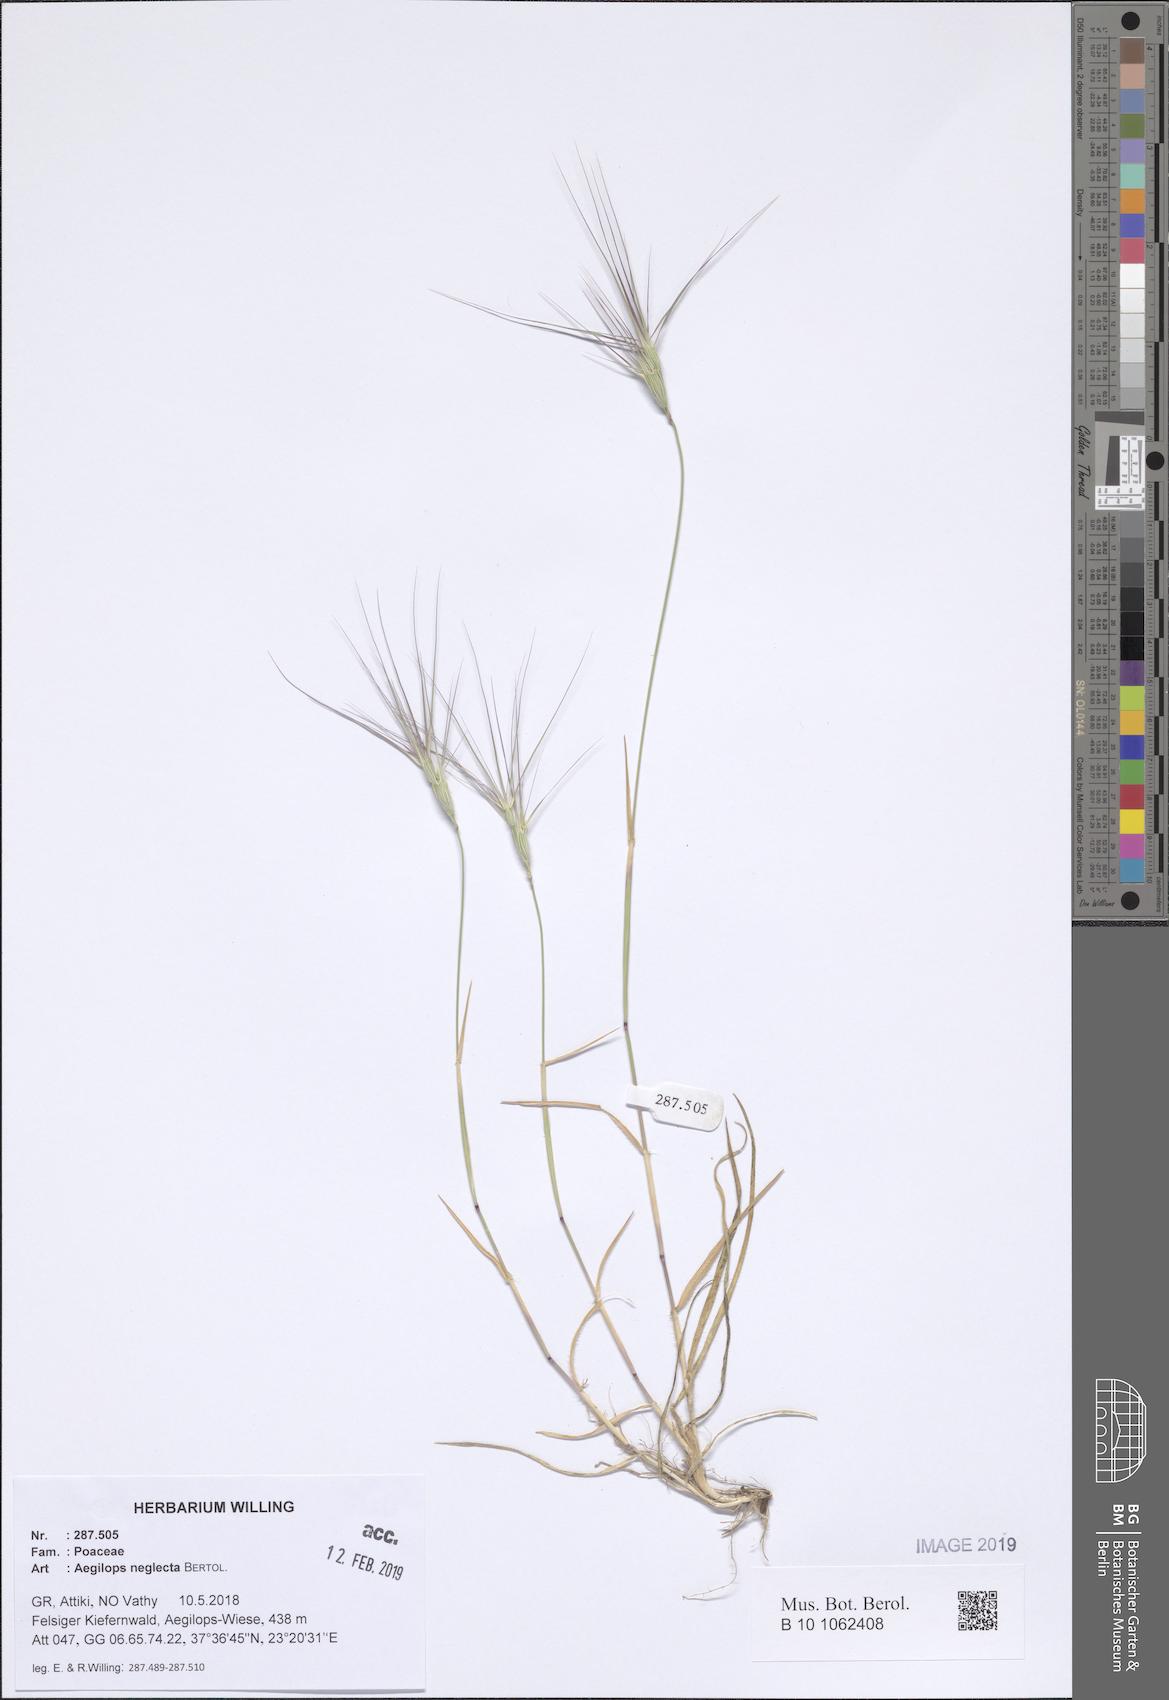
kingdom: Plantae
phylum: Tracheophyta
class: Liliopsida
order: Poales
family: Poaceae
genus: Aegilops
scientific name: Aegilops neglecta
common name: Three-awn goat grass
